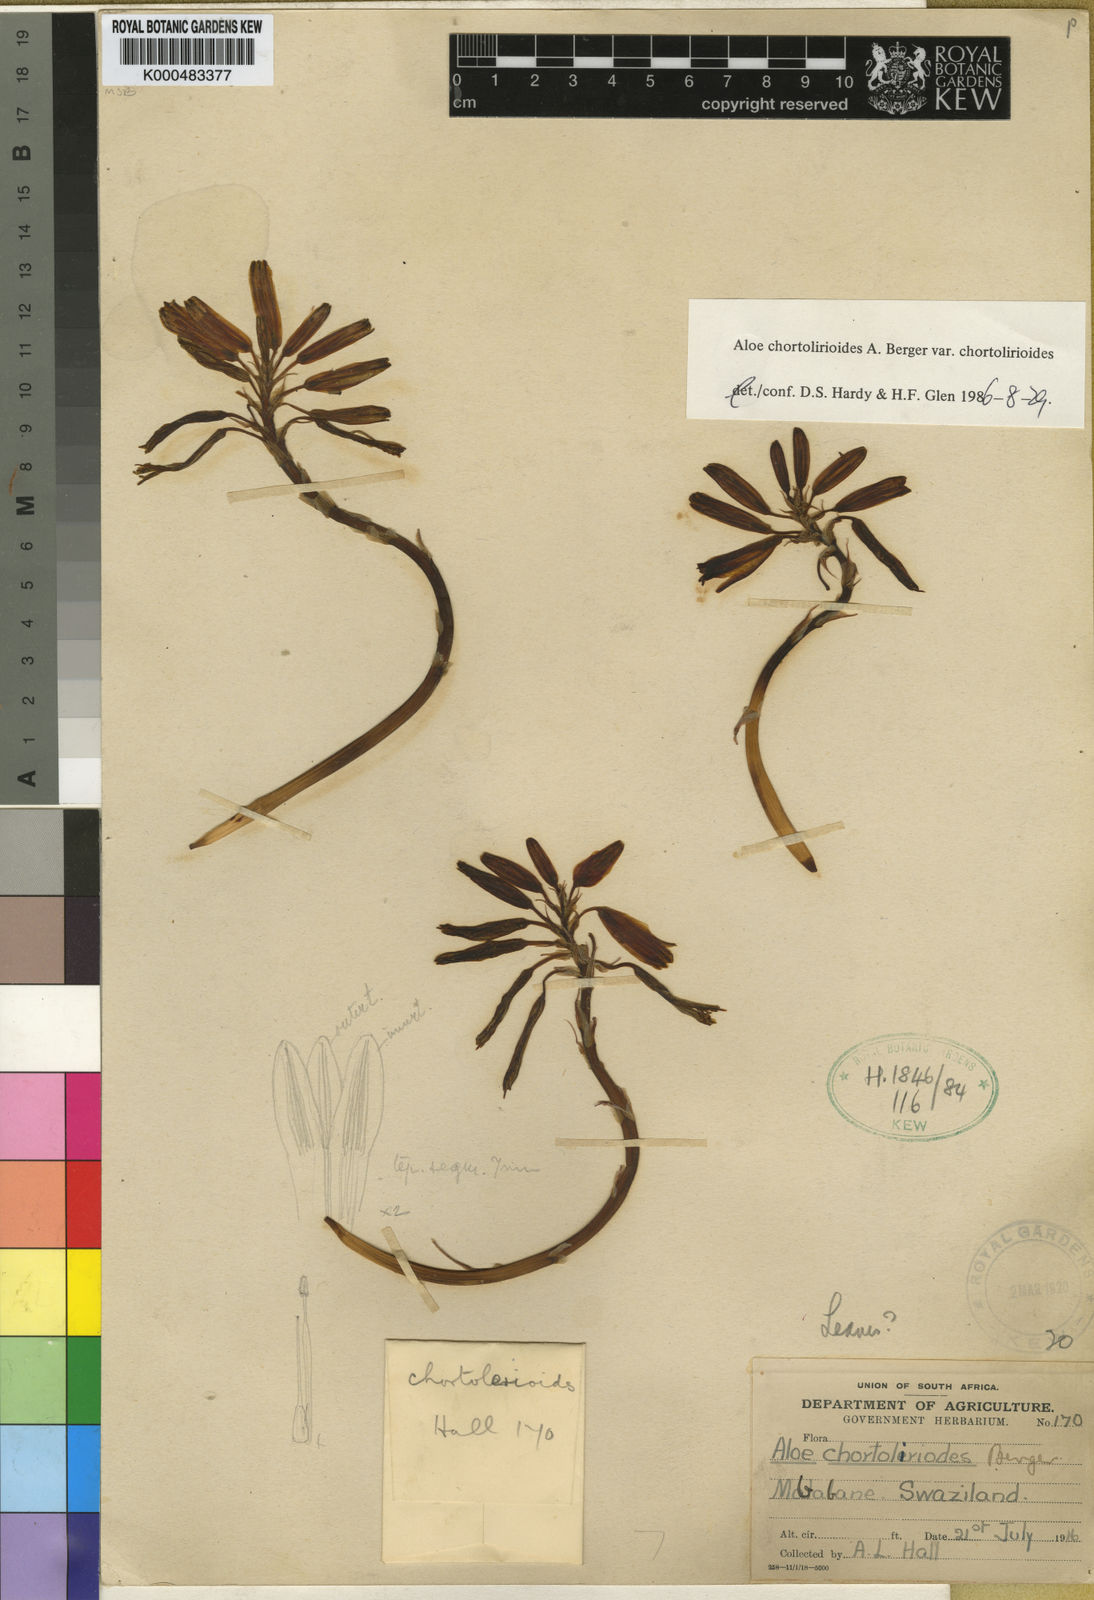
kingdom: Plantae
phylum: Tracheophyta
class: Liliopsida
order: Asparagales
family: Asphodelaceae
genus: Aloe
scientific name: Aloe chortolirioides
